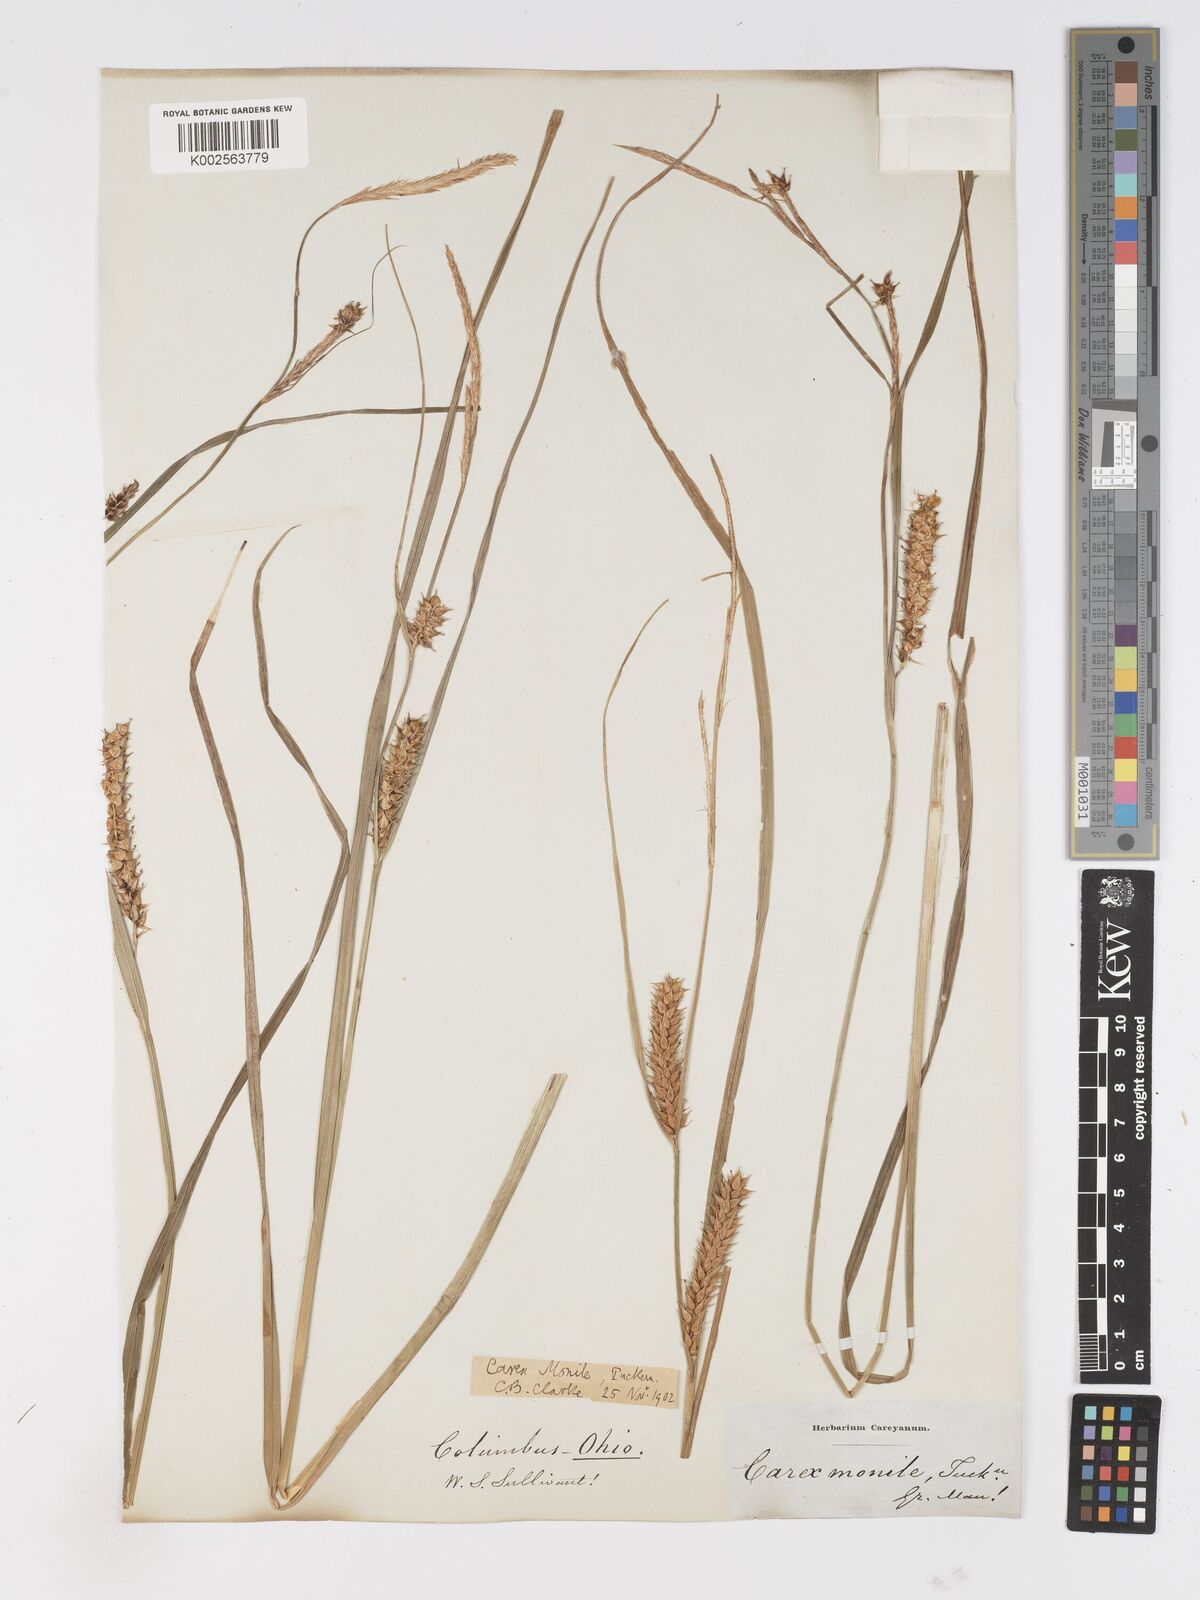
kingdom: Plantae
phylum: Tracheophyta
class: Liliopsida
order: Poales
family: Cyperaceae
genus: Carex
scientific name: Carex vesicaria
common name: Bladder-sedge
